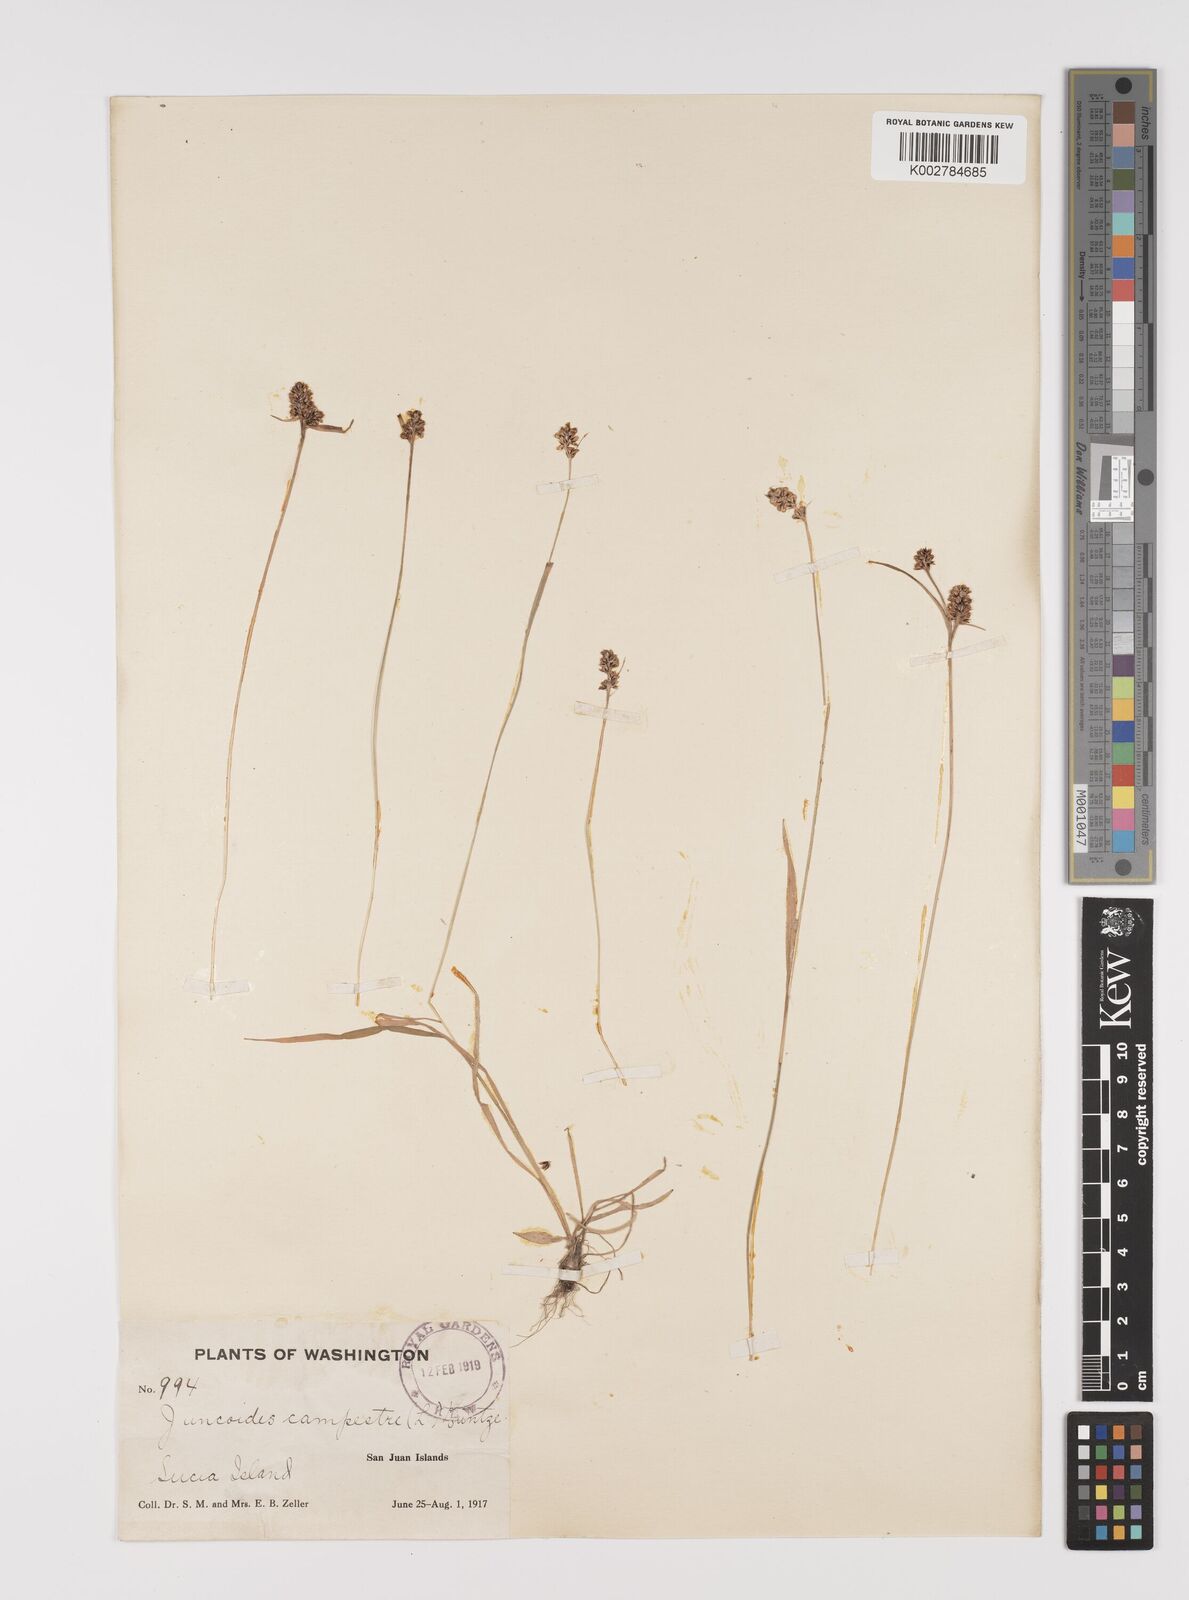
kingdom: Plantae
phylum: Tracheophyta
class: Liliopsida
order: Poales
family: Juncaceae
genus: Luzula
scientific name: Luzula campestris
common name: Field wood-rush
